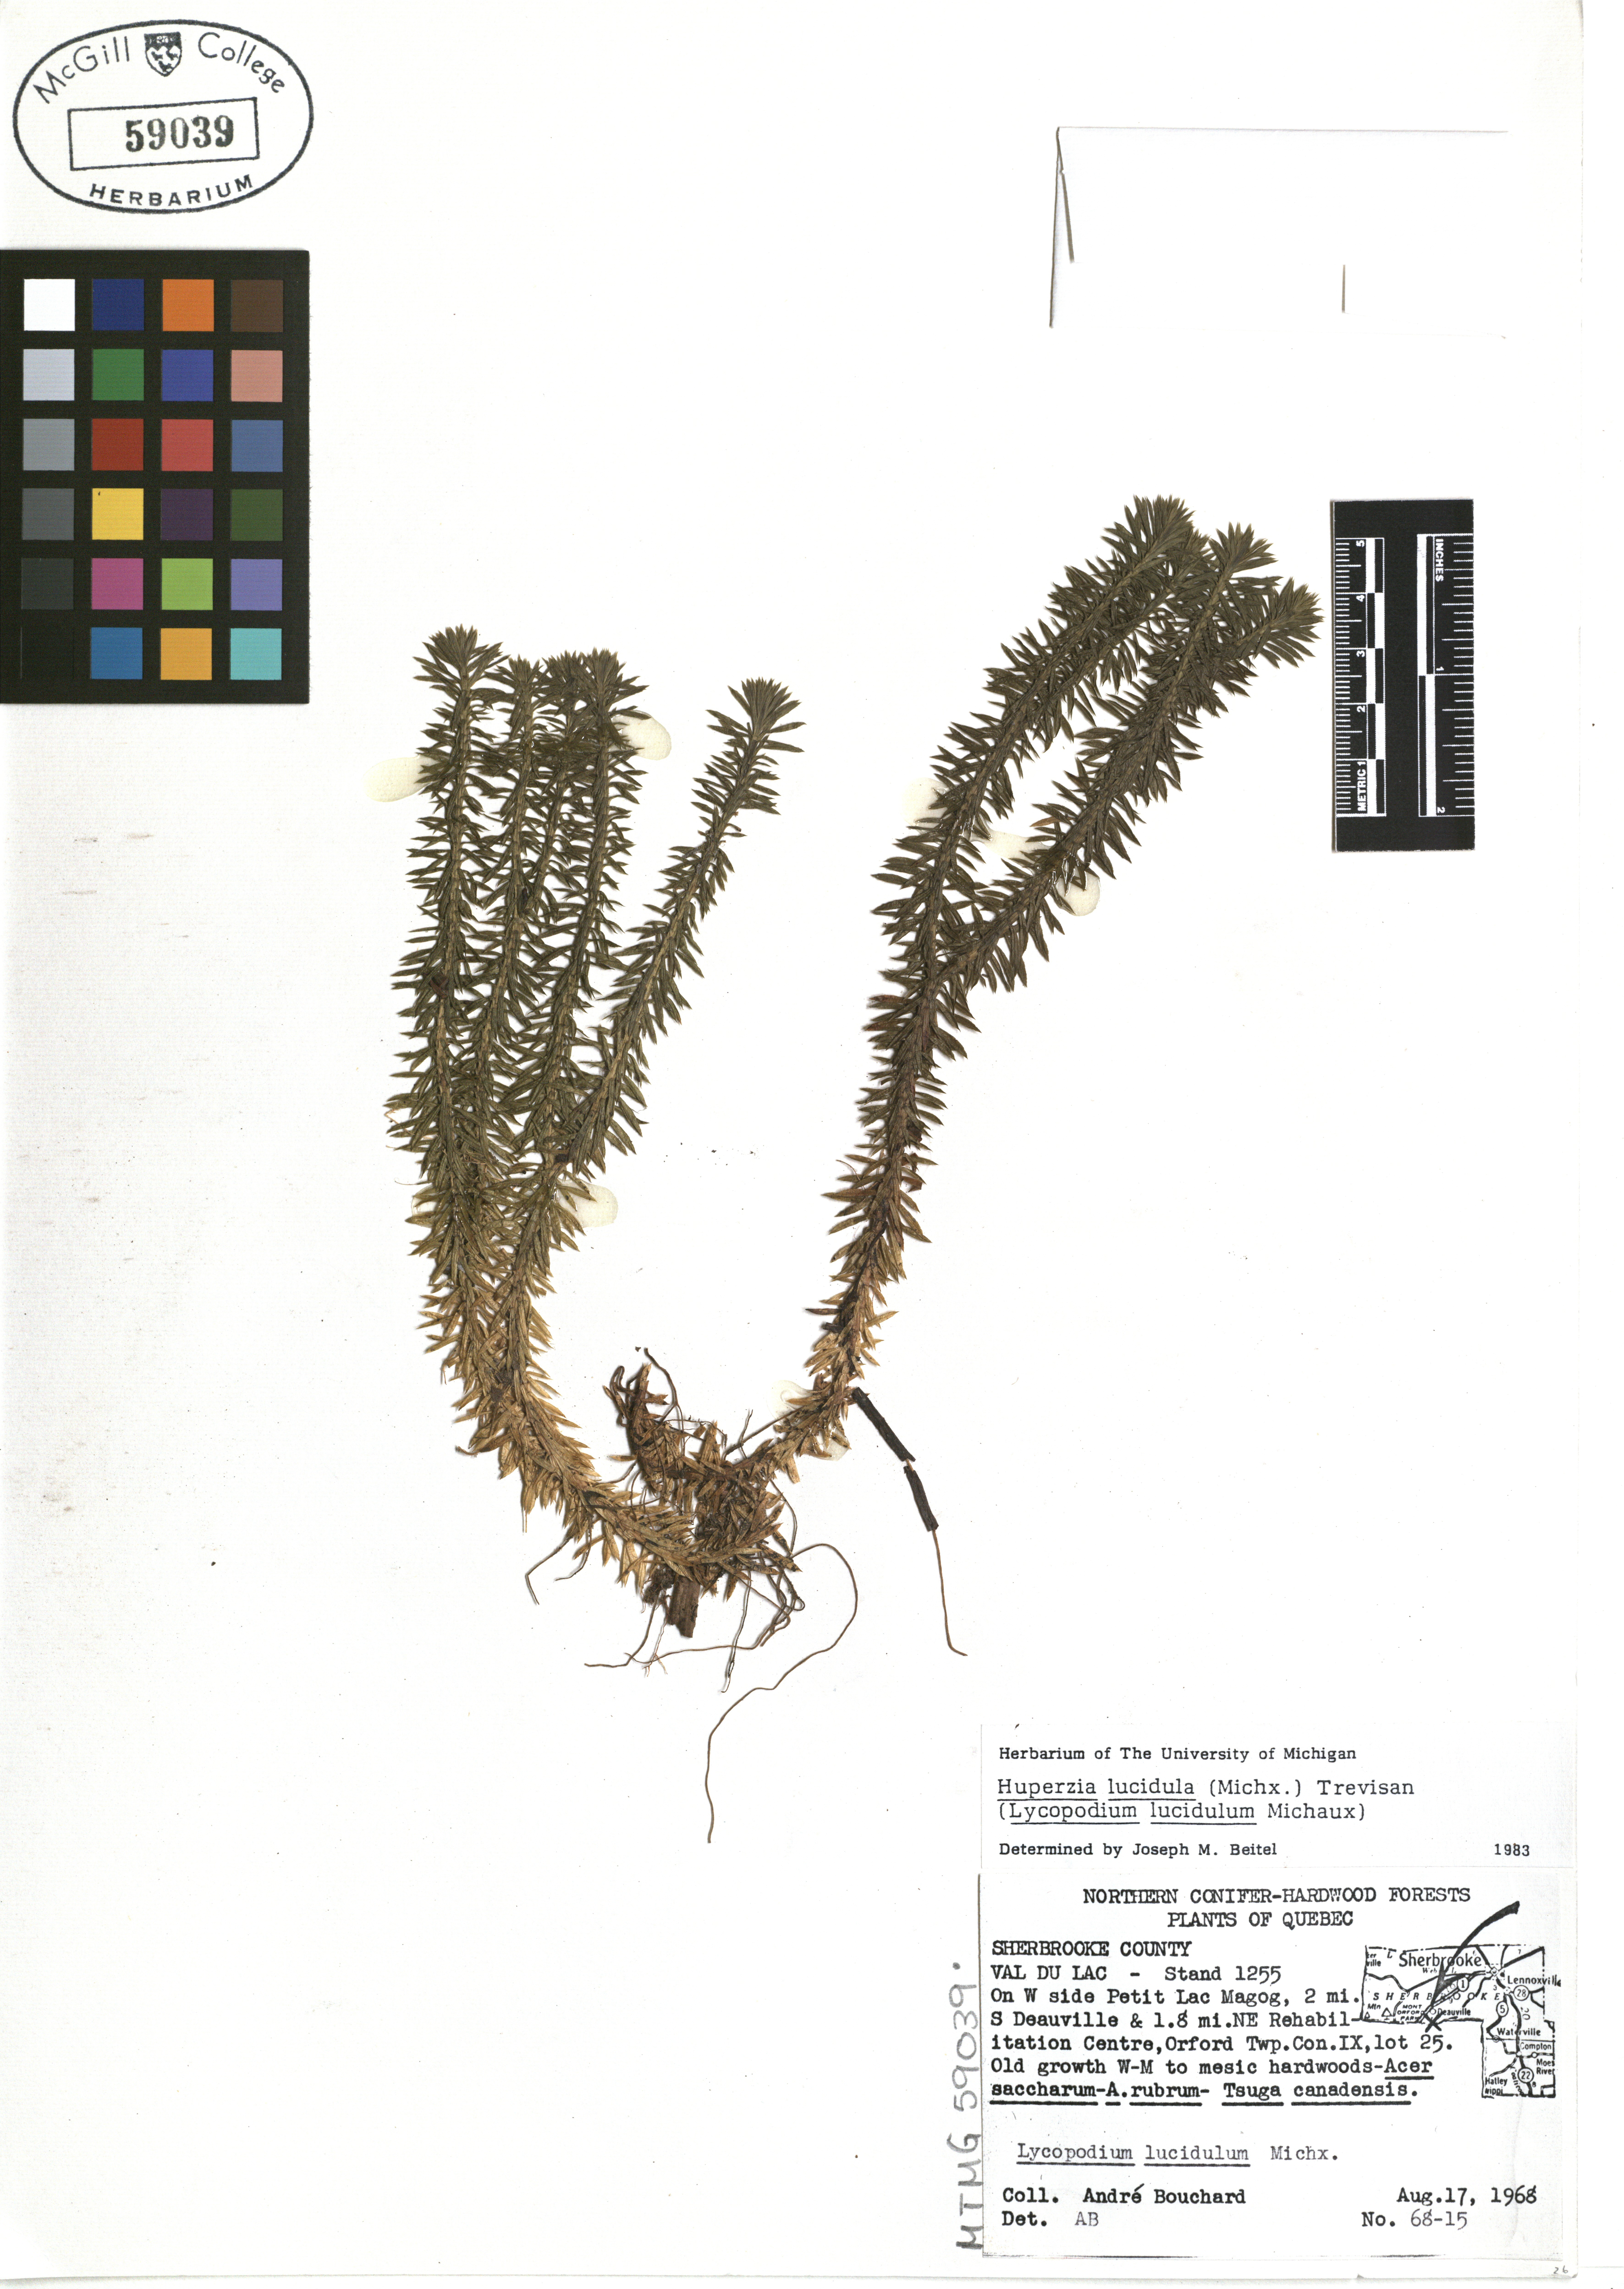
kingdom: Plantae
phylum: Tracheophyta
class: Lycopodiopsida
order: Lycopodiales
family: Lycopodiaceae
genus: Huperzia
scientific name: Huperzia lucidula
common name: Shining clubmoss
